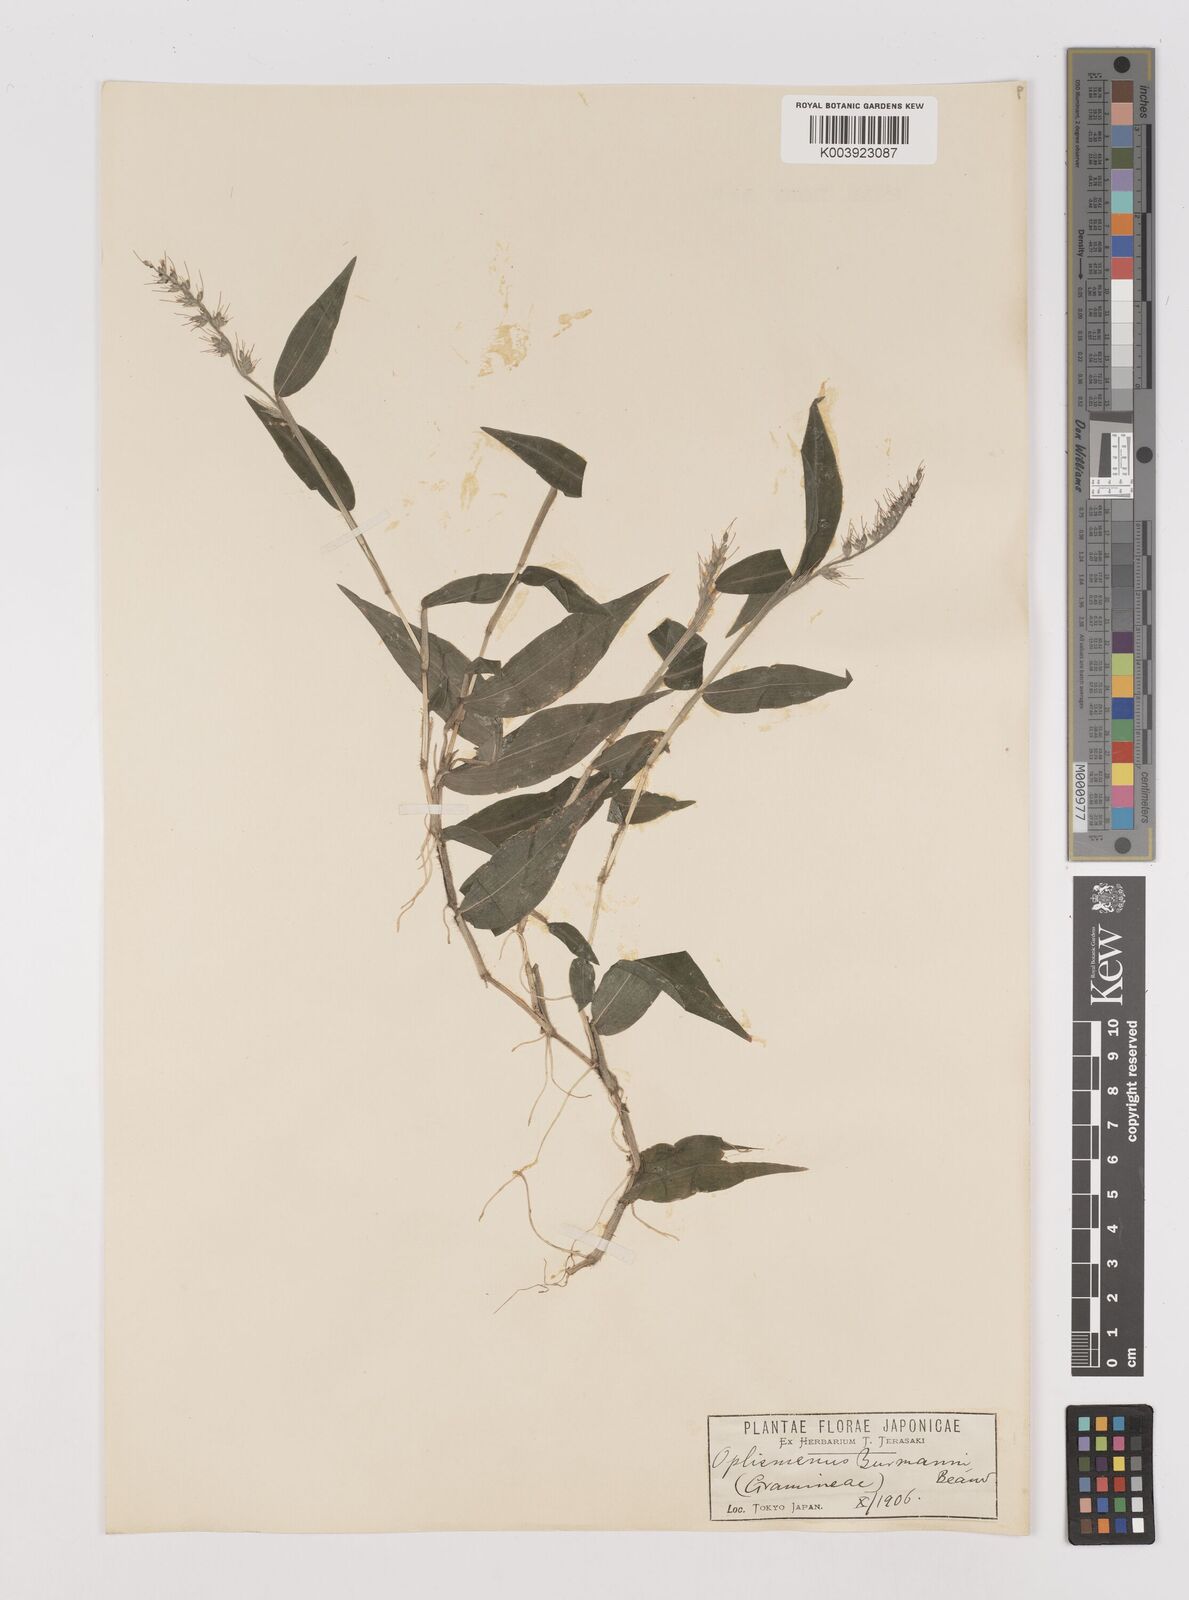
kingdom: Plantae
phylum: Tracheophyta
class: Liliopsida
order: Poales
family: Poaceae
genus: Oplismenus
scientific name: Oplismenus undulatifolius
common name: Wavyleaf basketgrass
